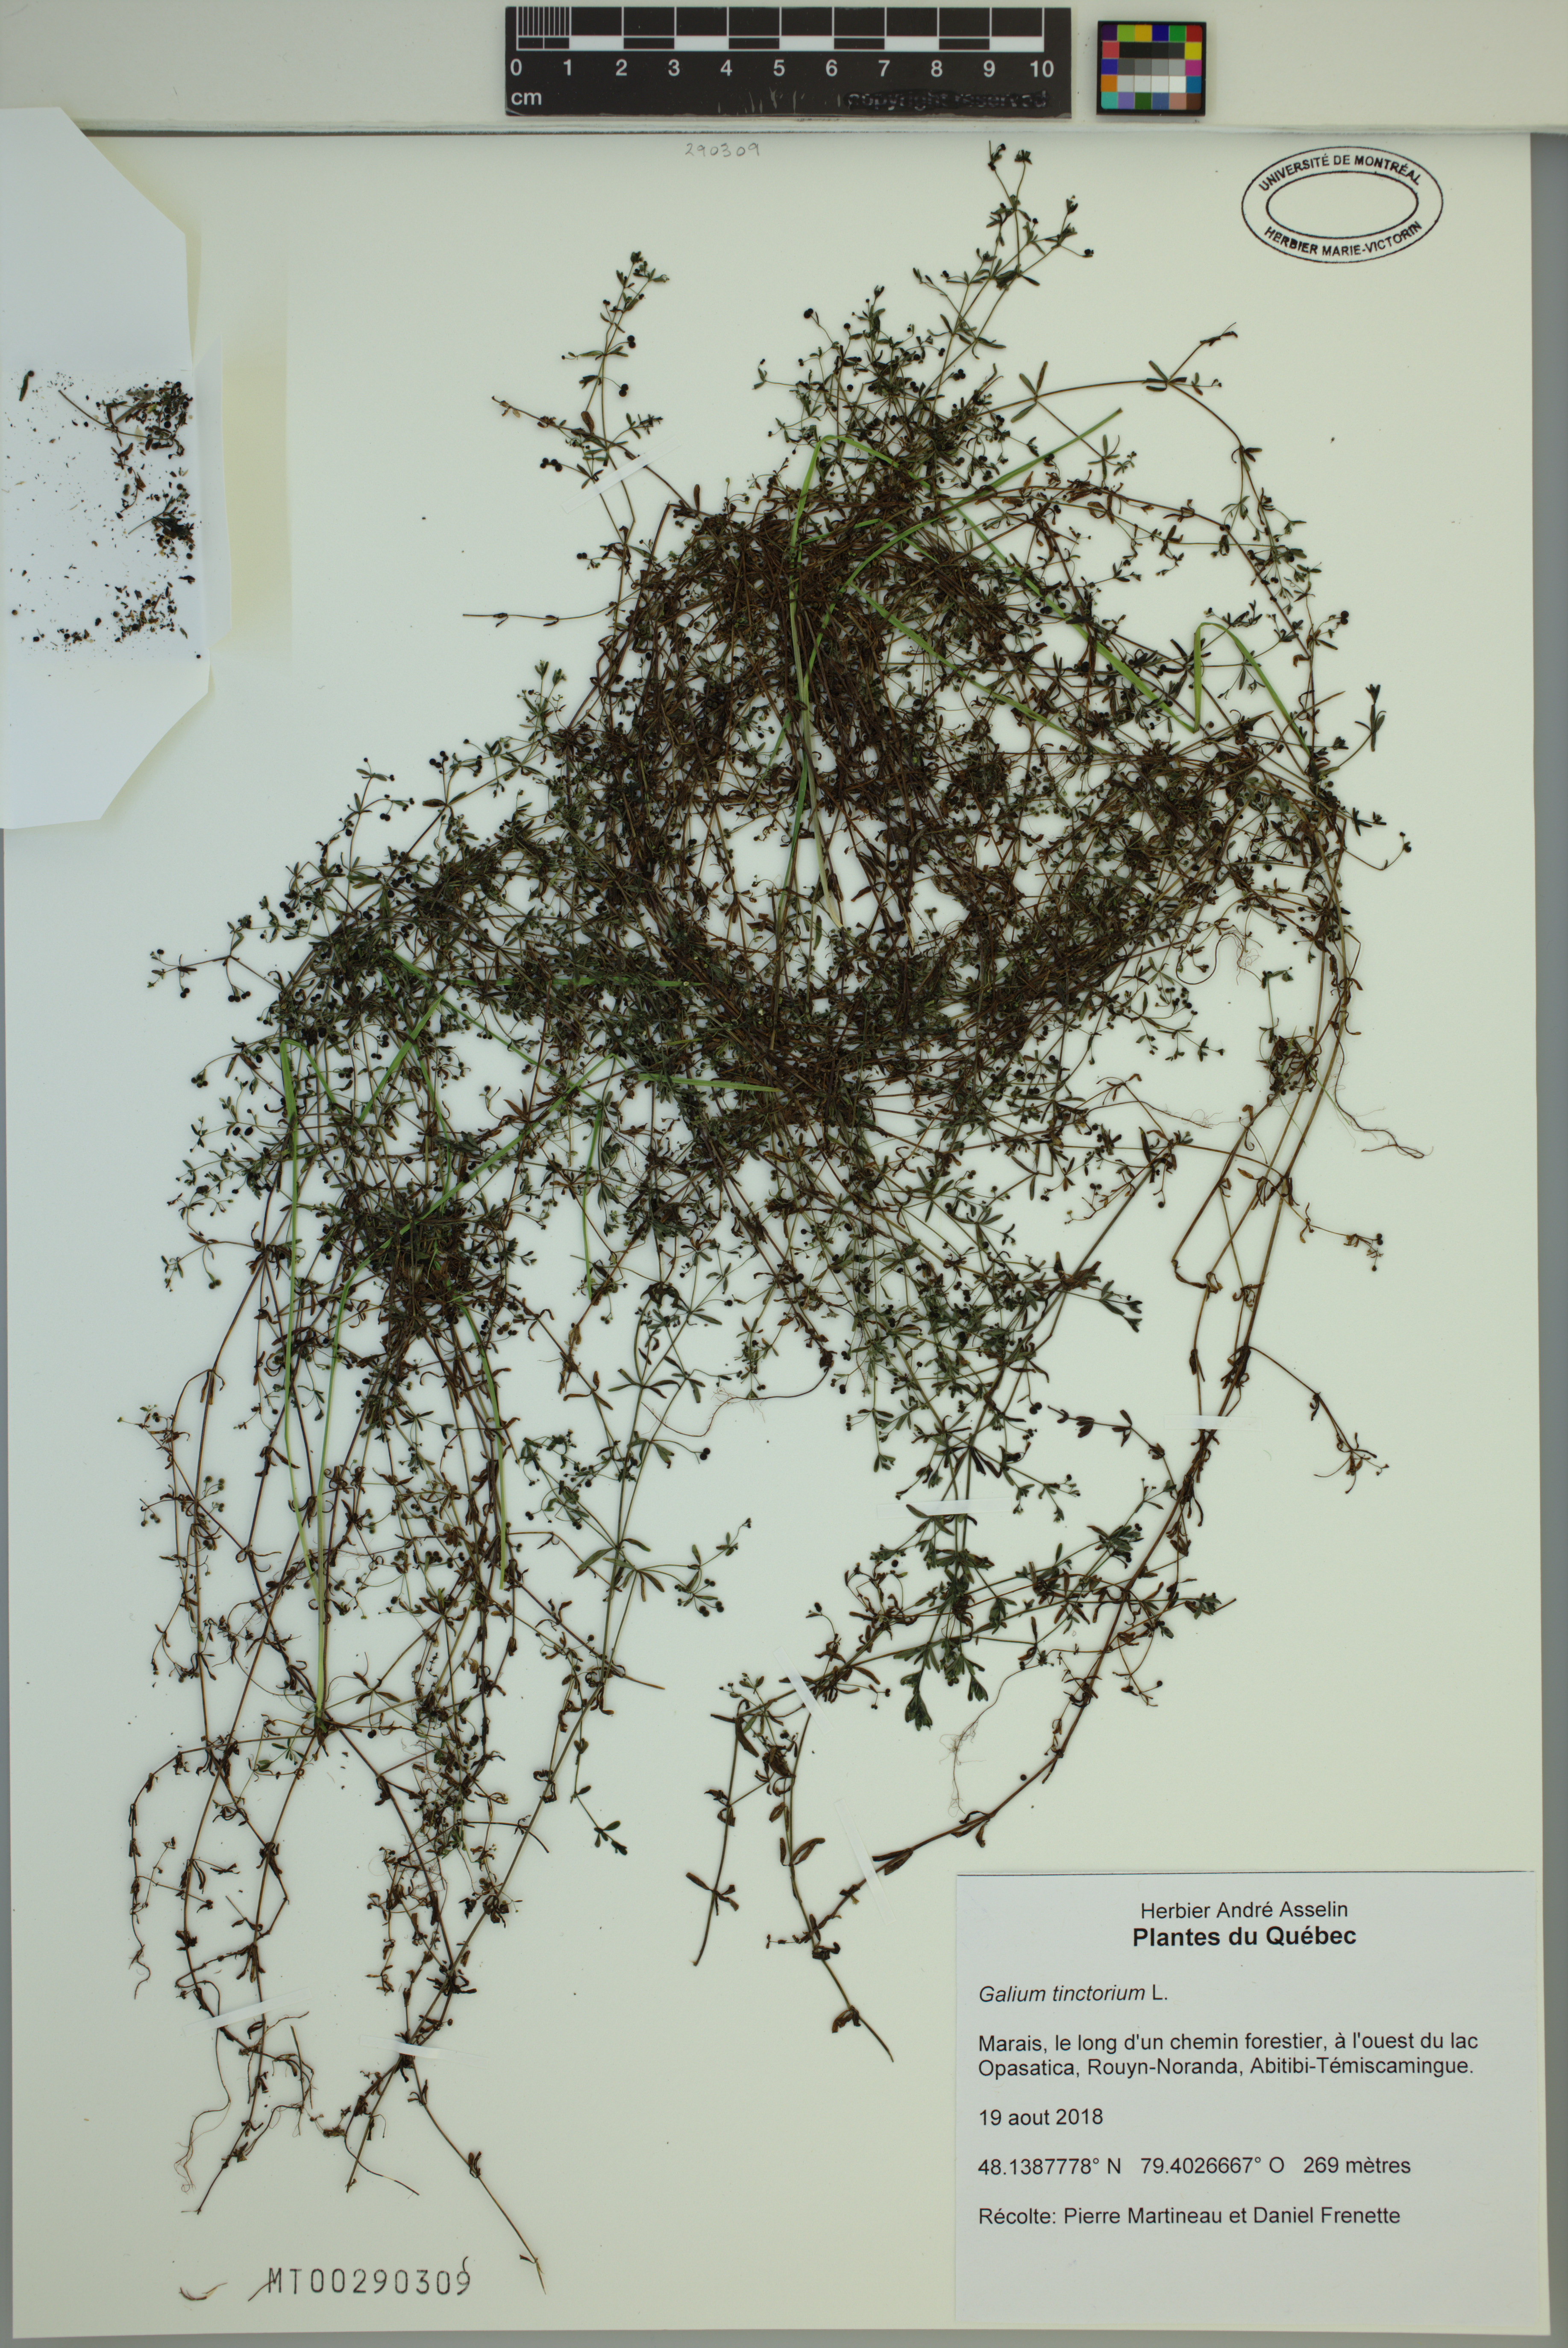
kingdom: Plantae
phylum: Tracheophyta
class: Magnoliopsida
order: Gentianales
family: Rubiaceae
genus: Galium
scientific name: Galium tinctorium
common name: Bedstraw
